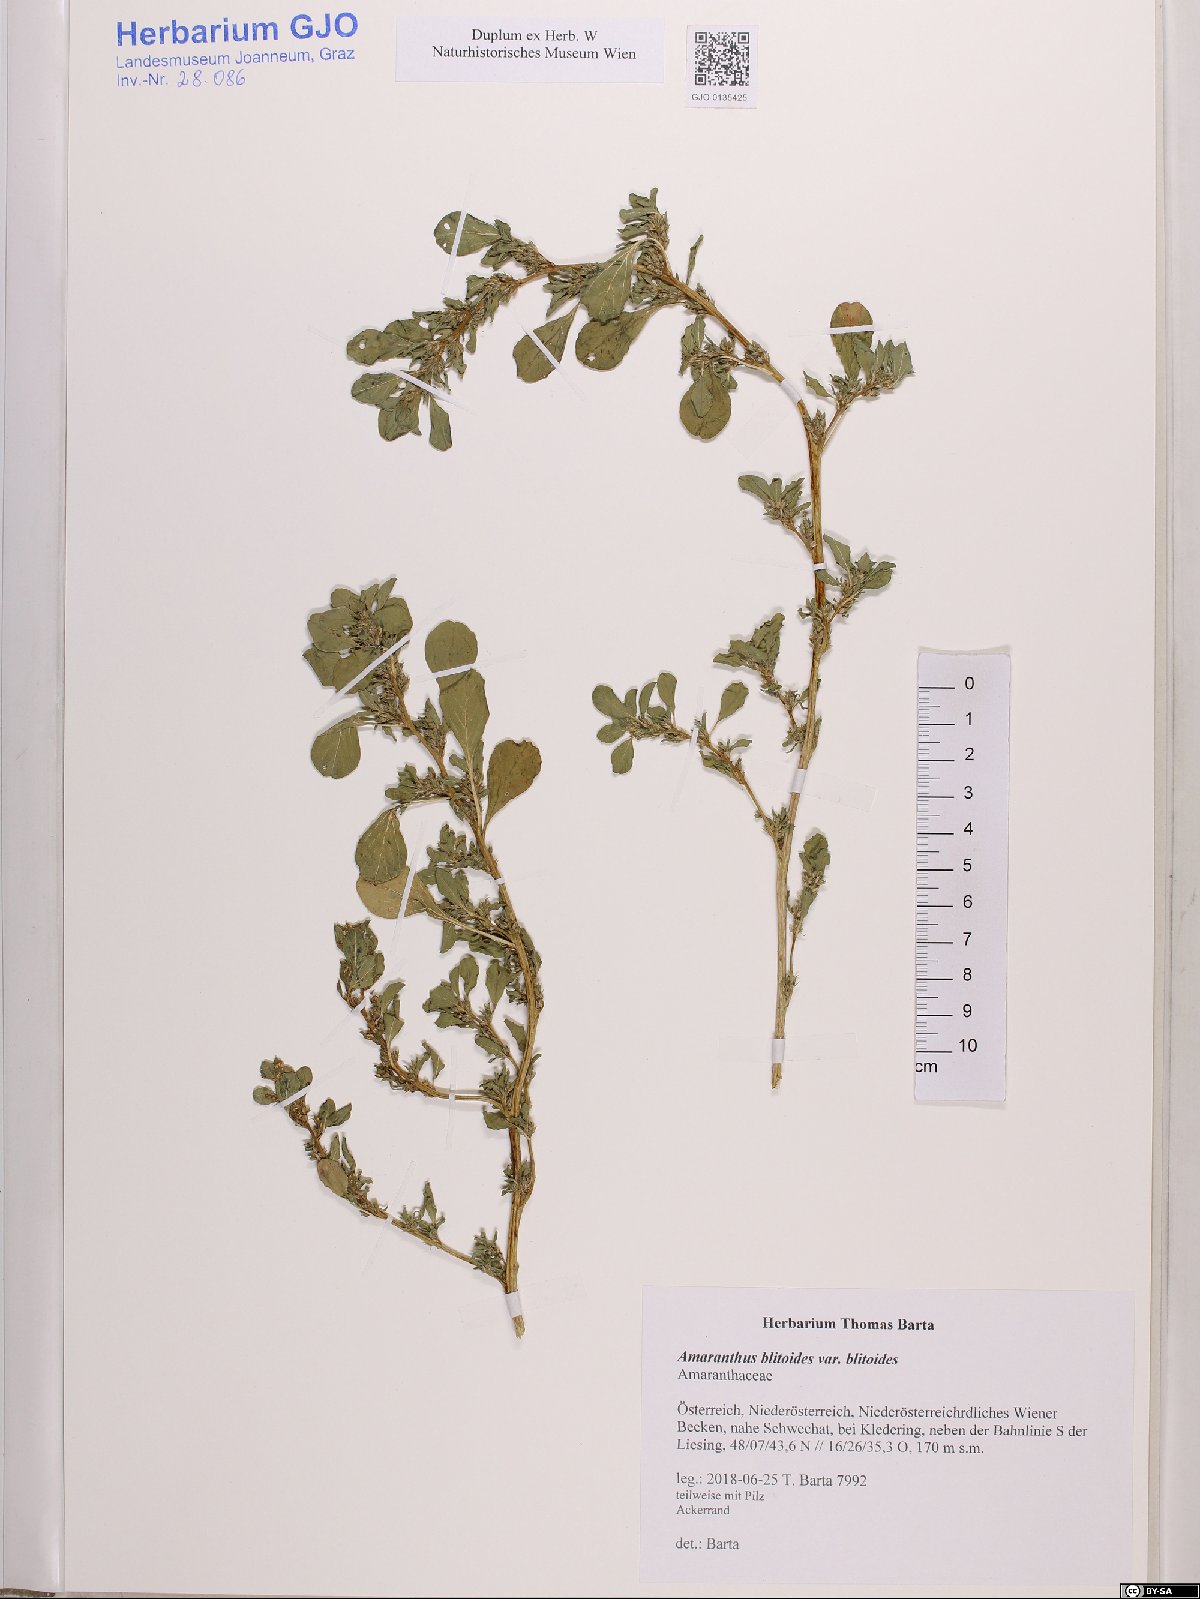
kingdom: Plantae
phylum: Tracheophyta
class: Magnoliopsida
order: Caryophyllales
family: Amaranthaceae
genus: Amaranthus
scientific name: Amaranthus blitoides
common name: Prostrate pigweed
